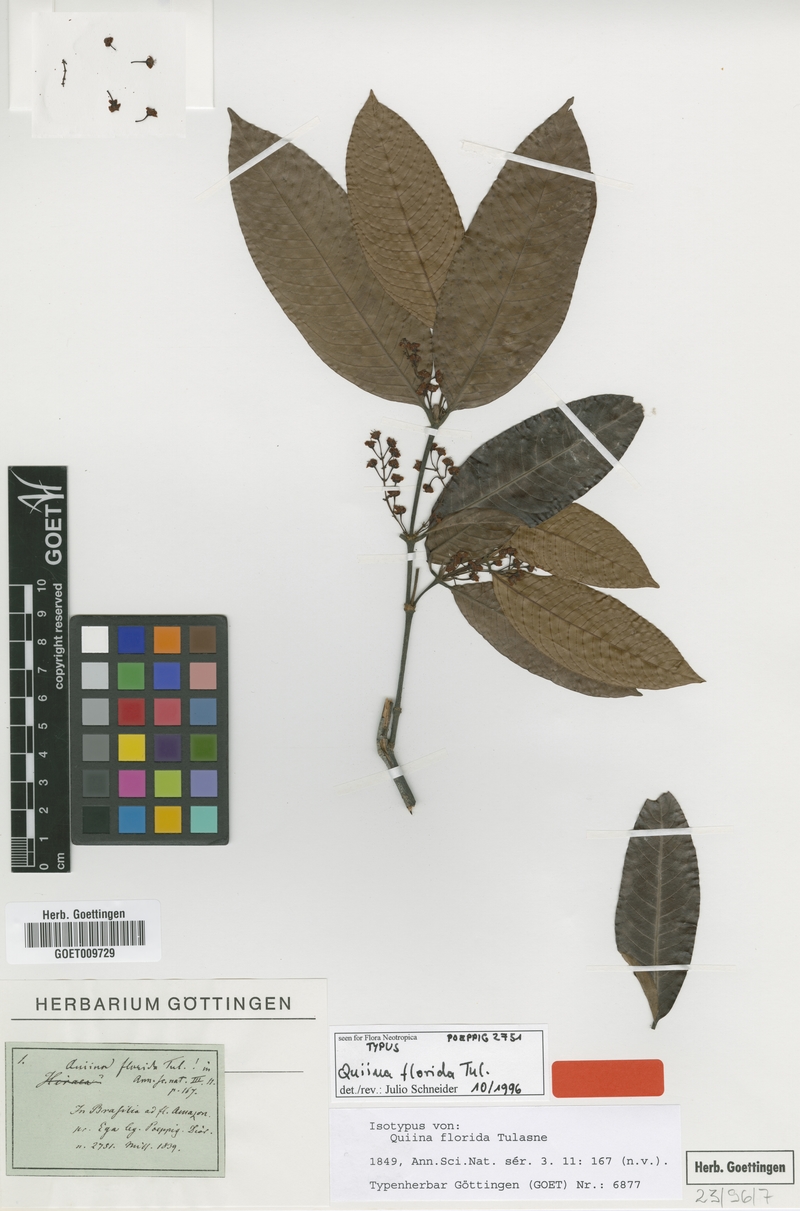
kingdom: Plantae
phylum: Tracheophyta
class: Magnoliopsida
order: Malpighiales
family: Quiinaceae
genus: Quiina
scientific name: Quiina florida
